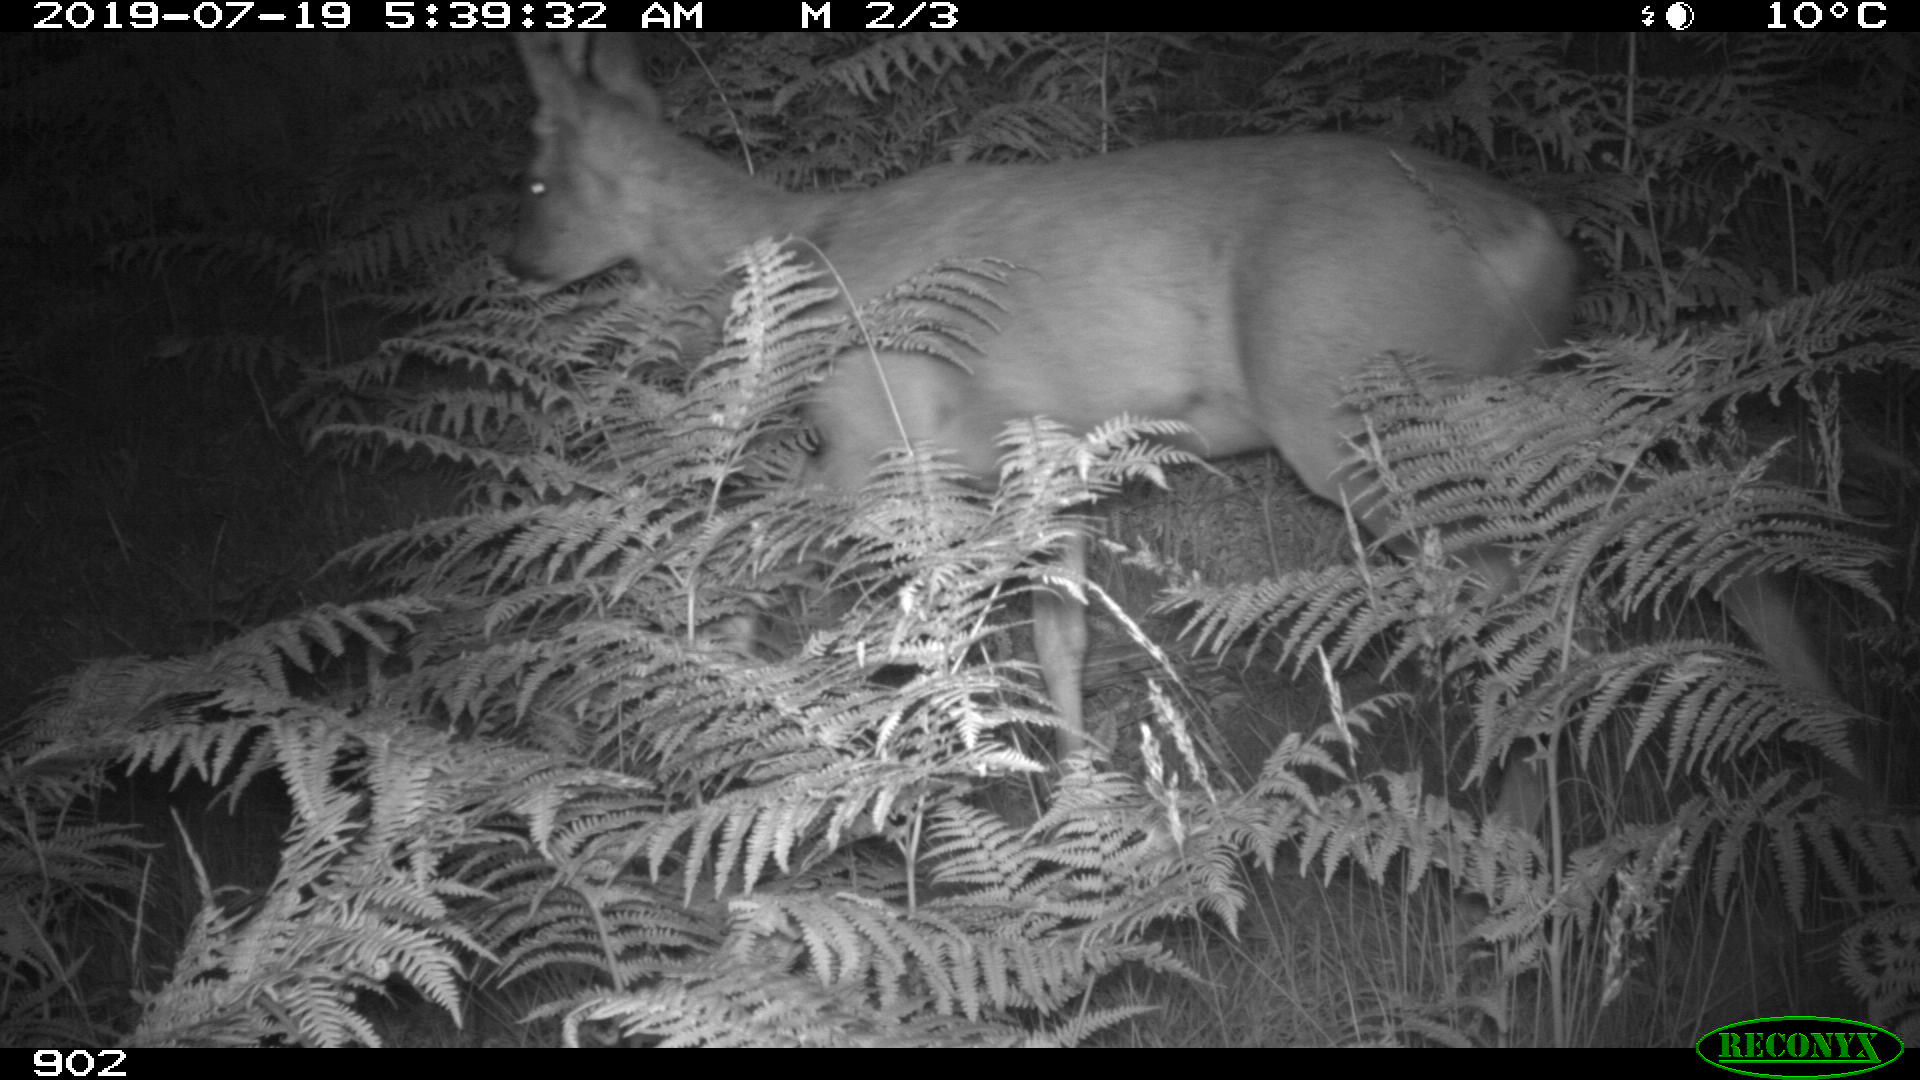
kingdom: Animalia
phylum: Chordata
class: Mammalia
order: Artiodactyla
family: Cervidae
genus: Capreolus
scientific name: Capreolus capreolus
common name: Western roe deer
